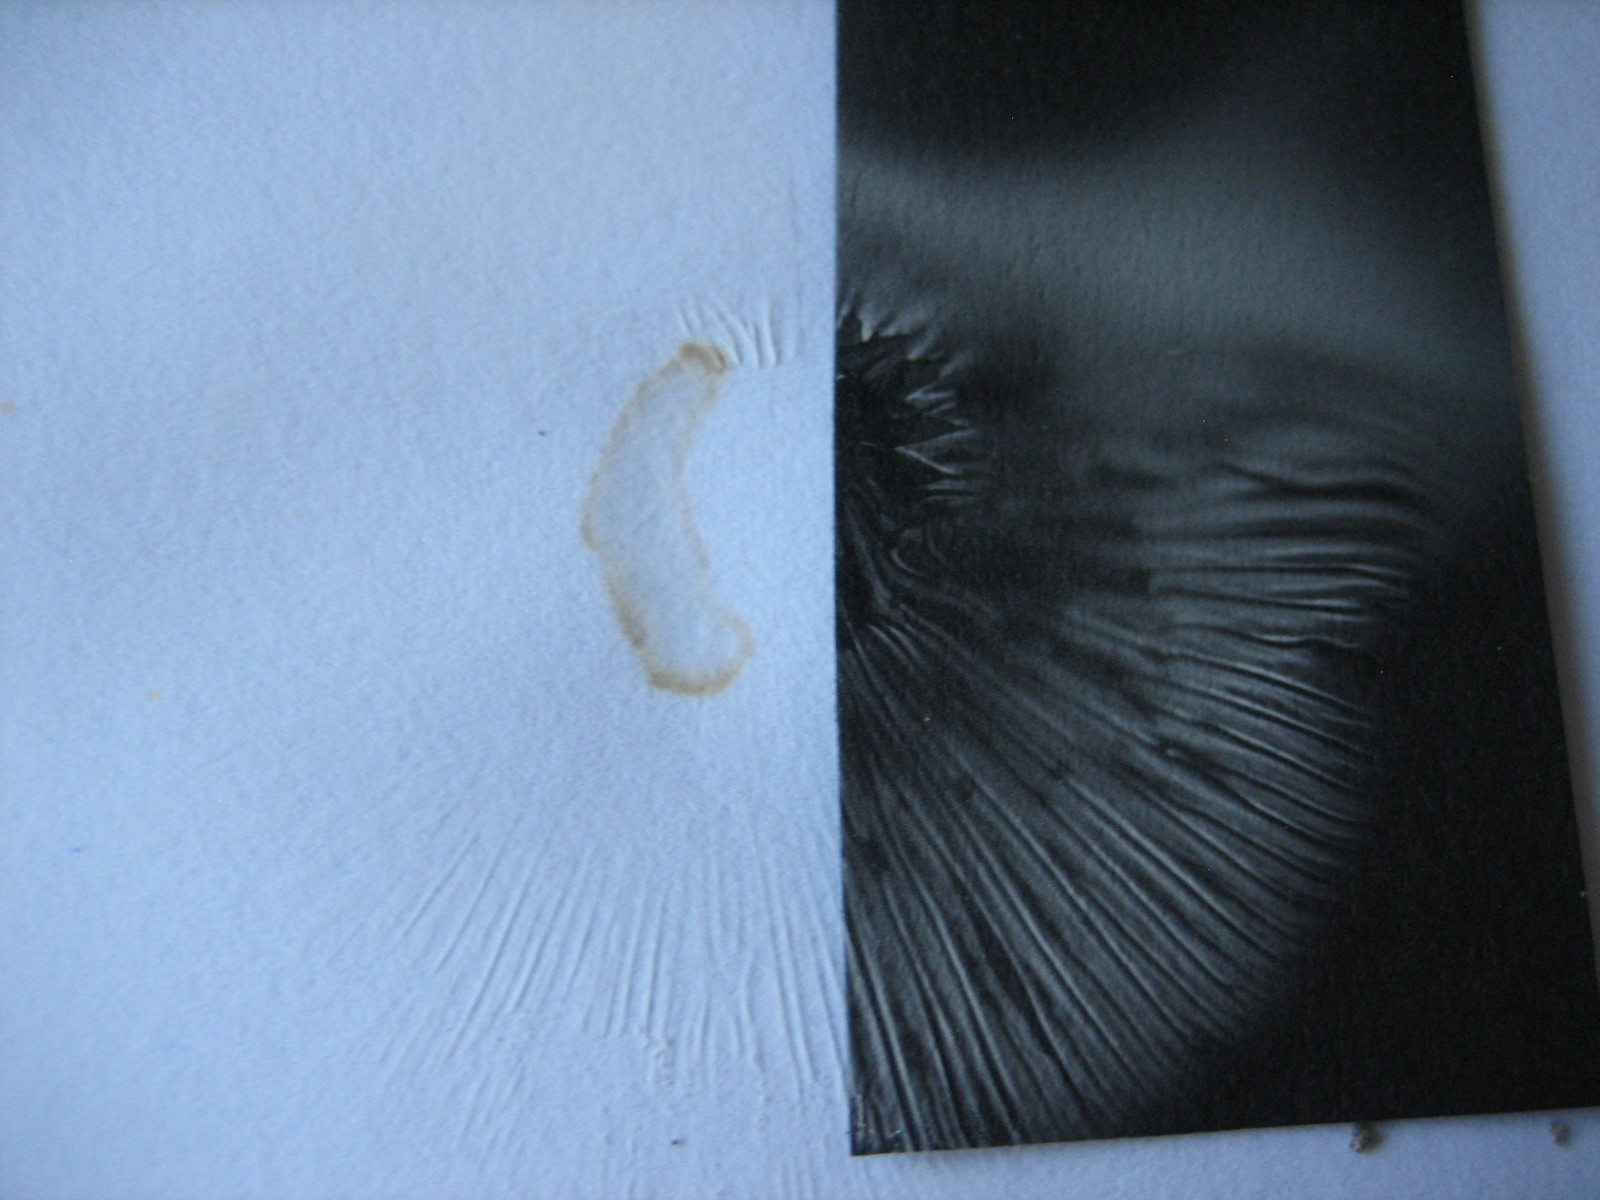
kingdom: Fungi
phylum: Basidiomycota
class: Agaricomycetes
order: Agaricales
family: Hygrophoraceae
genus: Ampulloclitocybe
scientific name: Ampulloclitocybe clavipes
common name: køllefod
